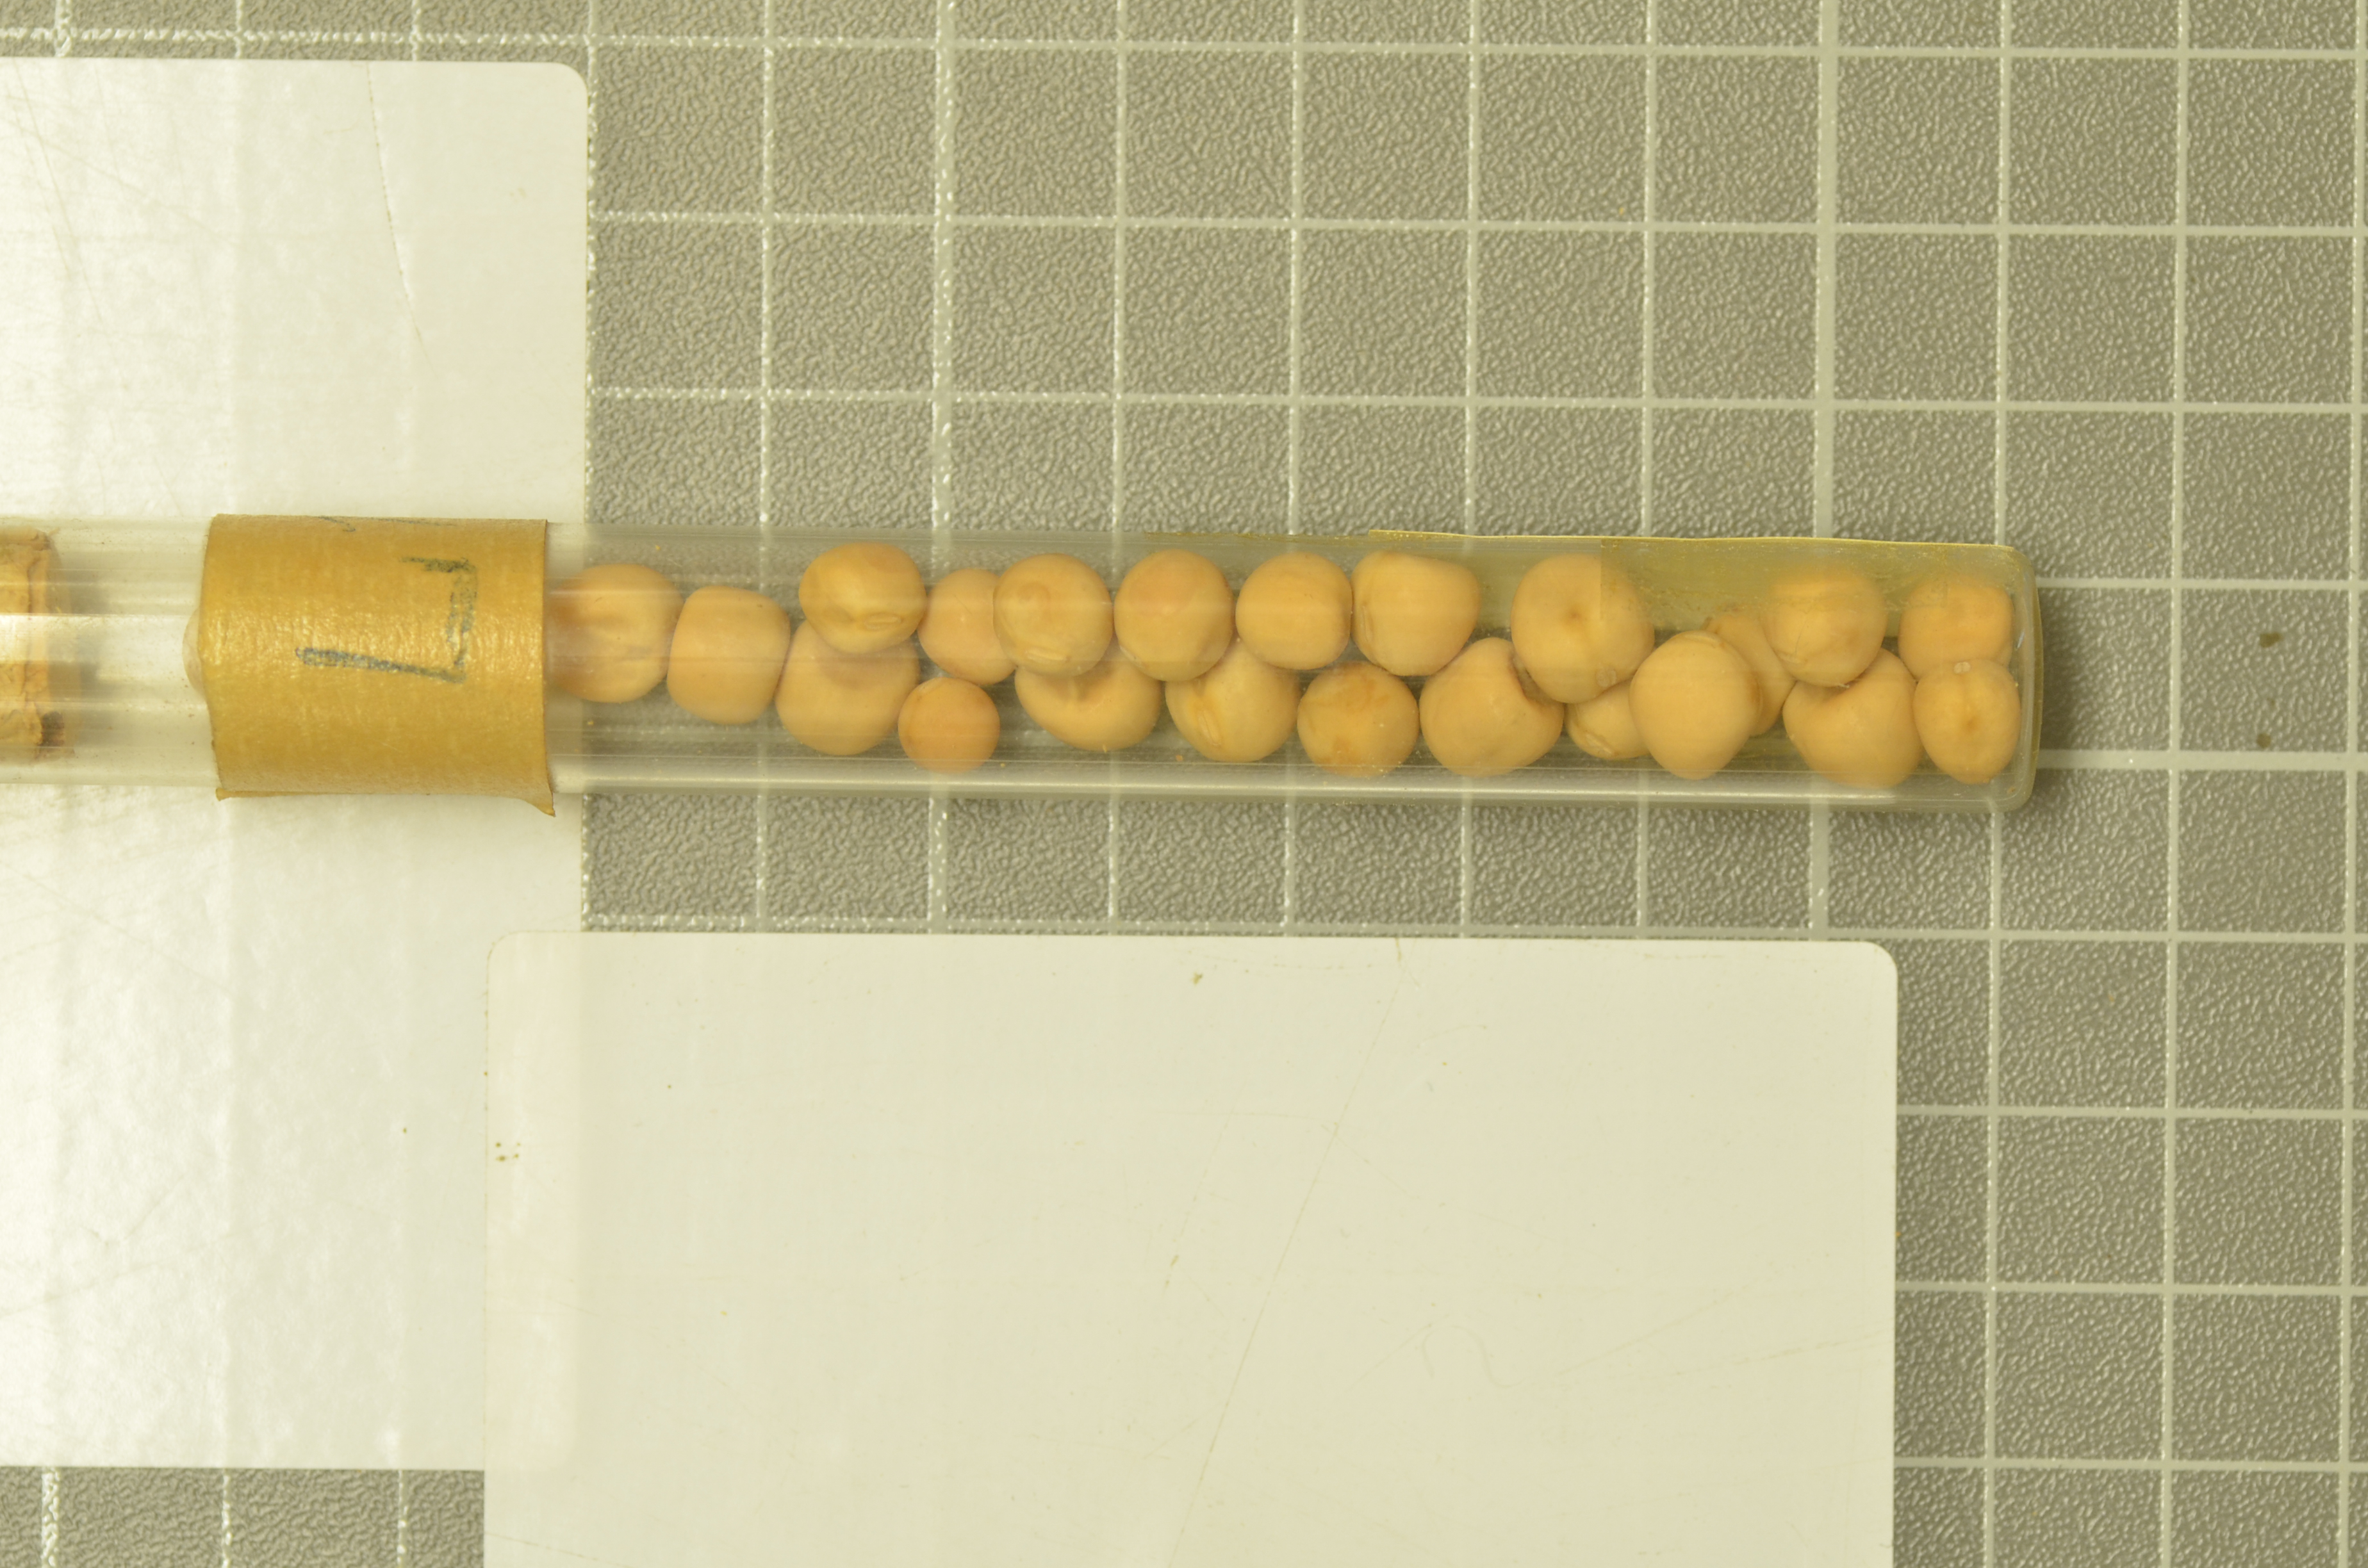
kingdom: Plantae
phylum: Tracheophyta
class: Magnoliopsida
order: Fabales
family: Fabaceae
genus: Lathyrus
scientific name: Lathyrus oleraceus
